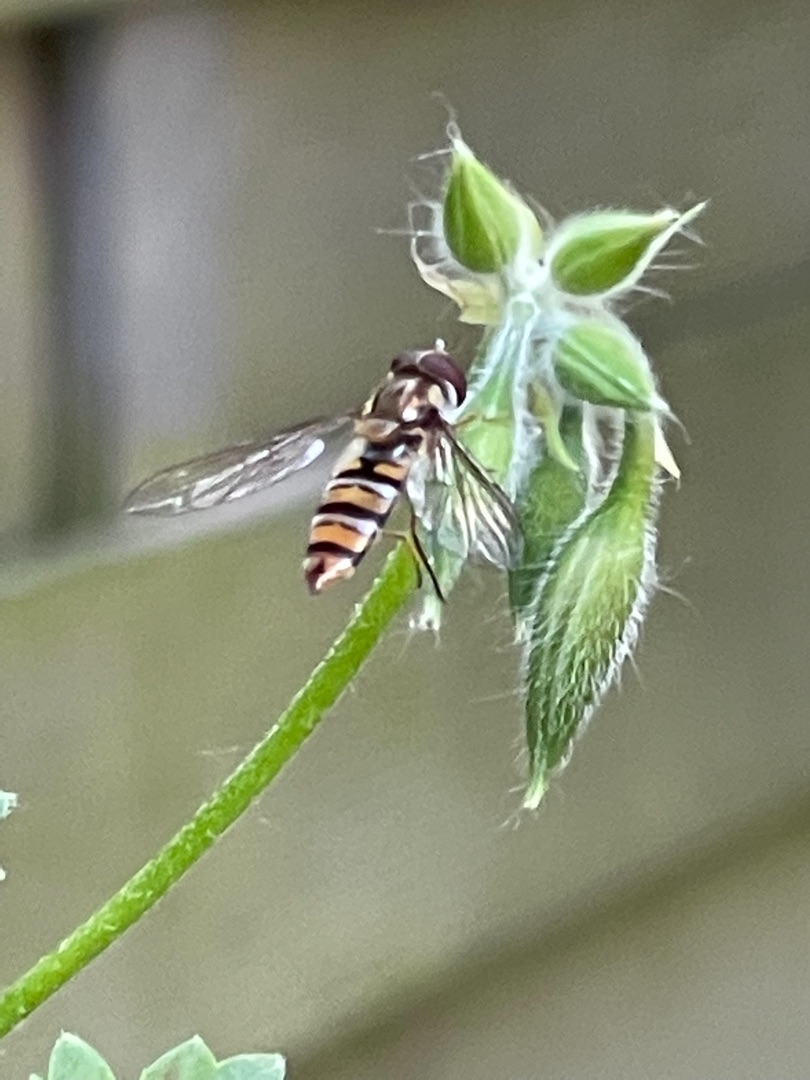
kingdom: Animalia
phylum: Arthropoda
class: Insecta
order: Diptera
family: Syrphidae
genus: Episyrphus
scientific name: Episyrphus balteatus
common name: Dobbeltbåndet svirreflue
